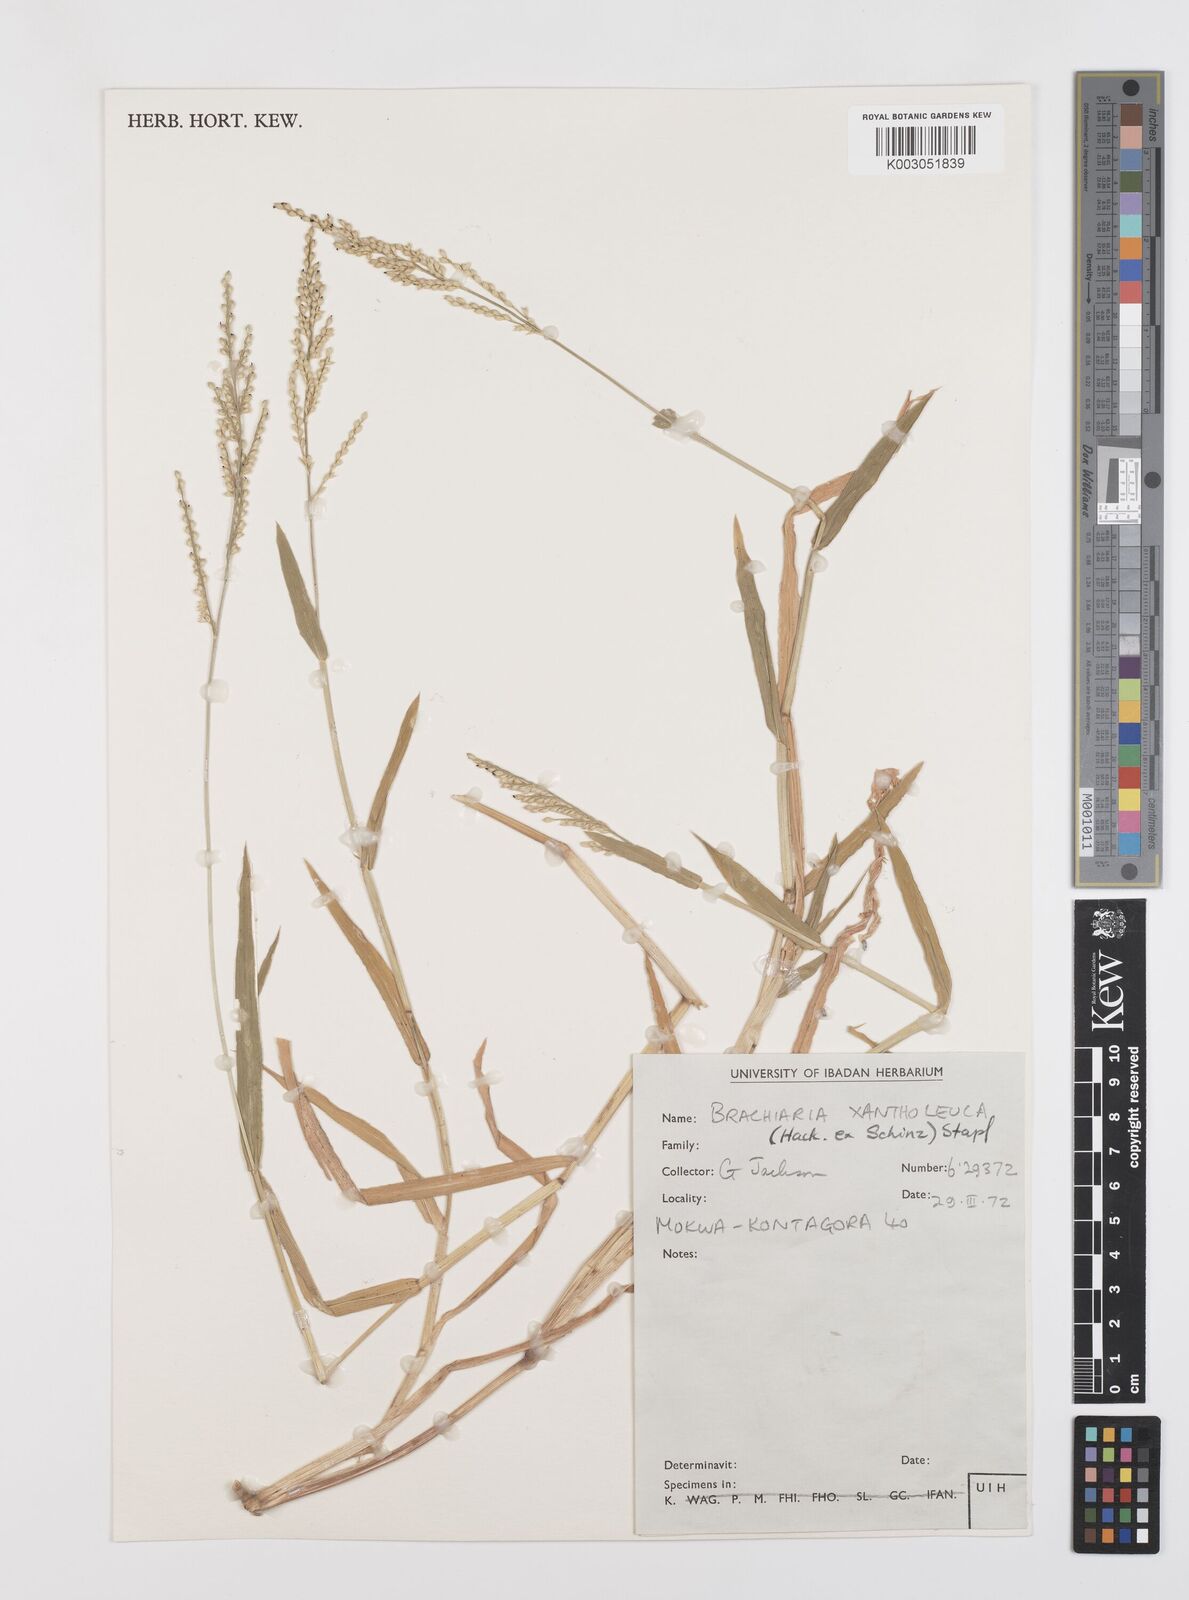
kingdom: Plantae
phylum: Tracheophyta
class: Liliopsida
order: Poales
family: Poaceae
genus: Urochloa
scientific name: Urochloa xantholeuca
